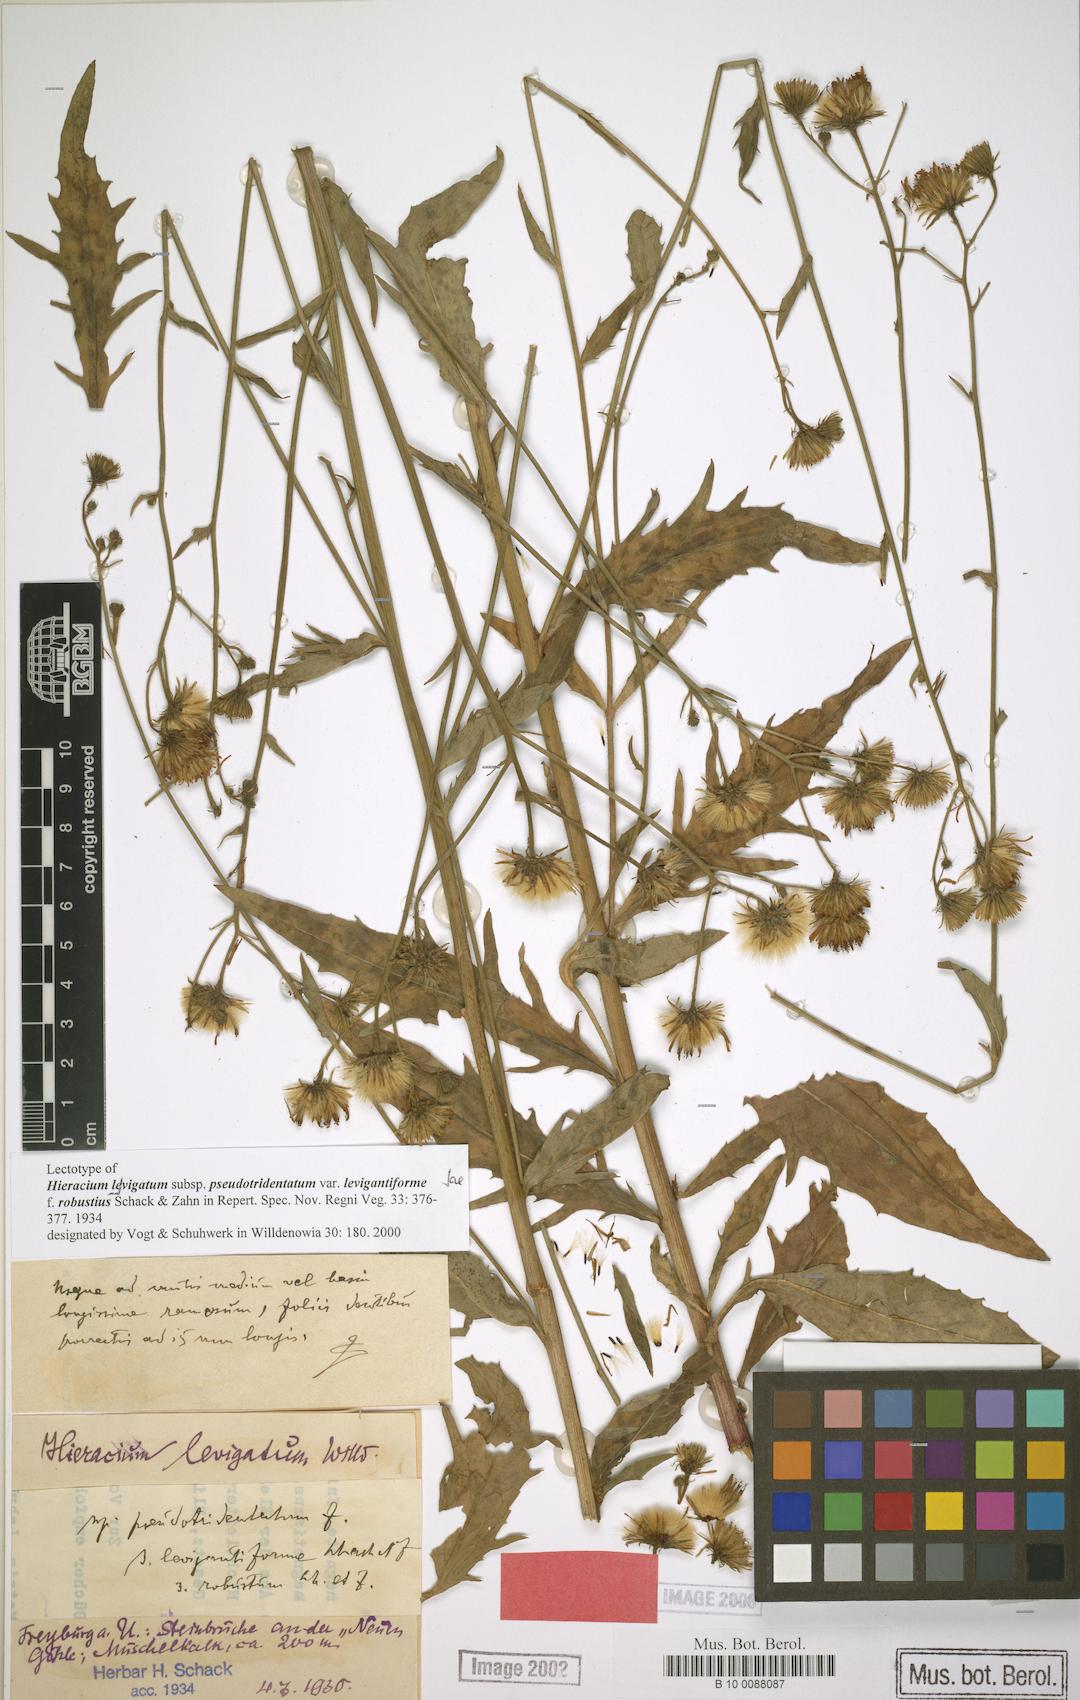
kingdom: Plantae
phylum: Tracheophyta
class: Magnoliopsida
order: Asterales
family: Asteraceae
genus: Hieracium
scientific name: Hieracium laevigatum
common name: Smooth hawkweed
